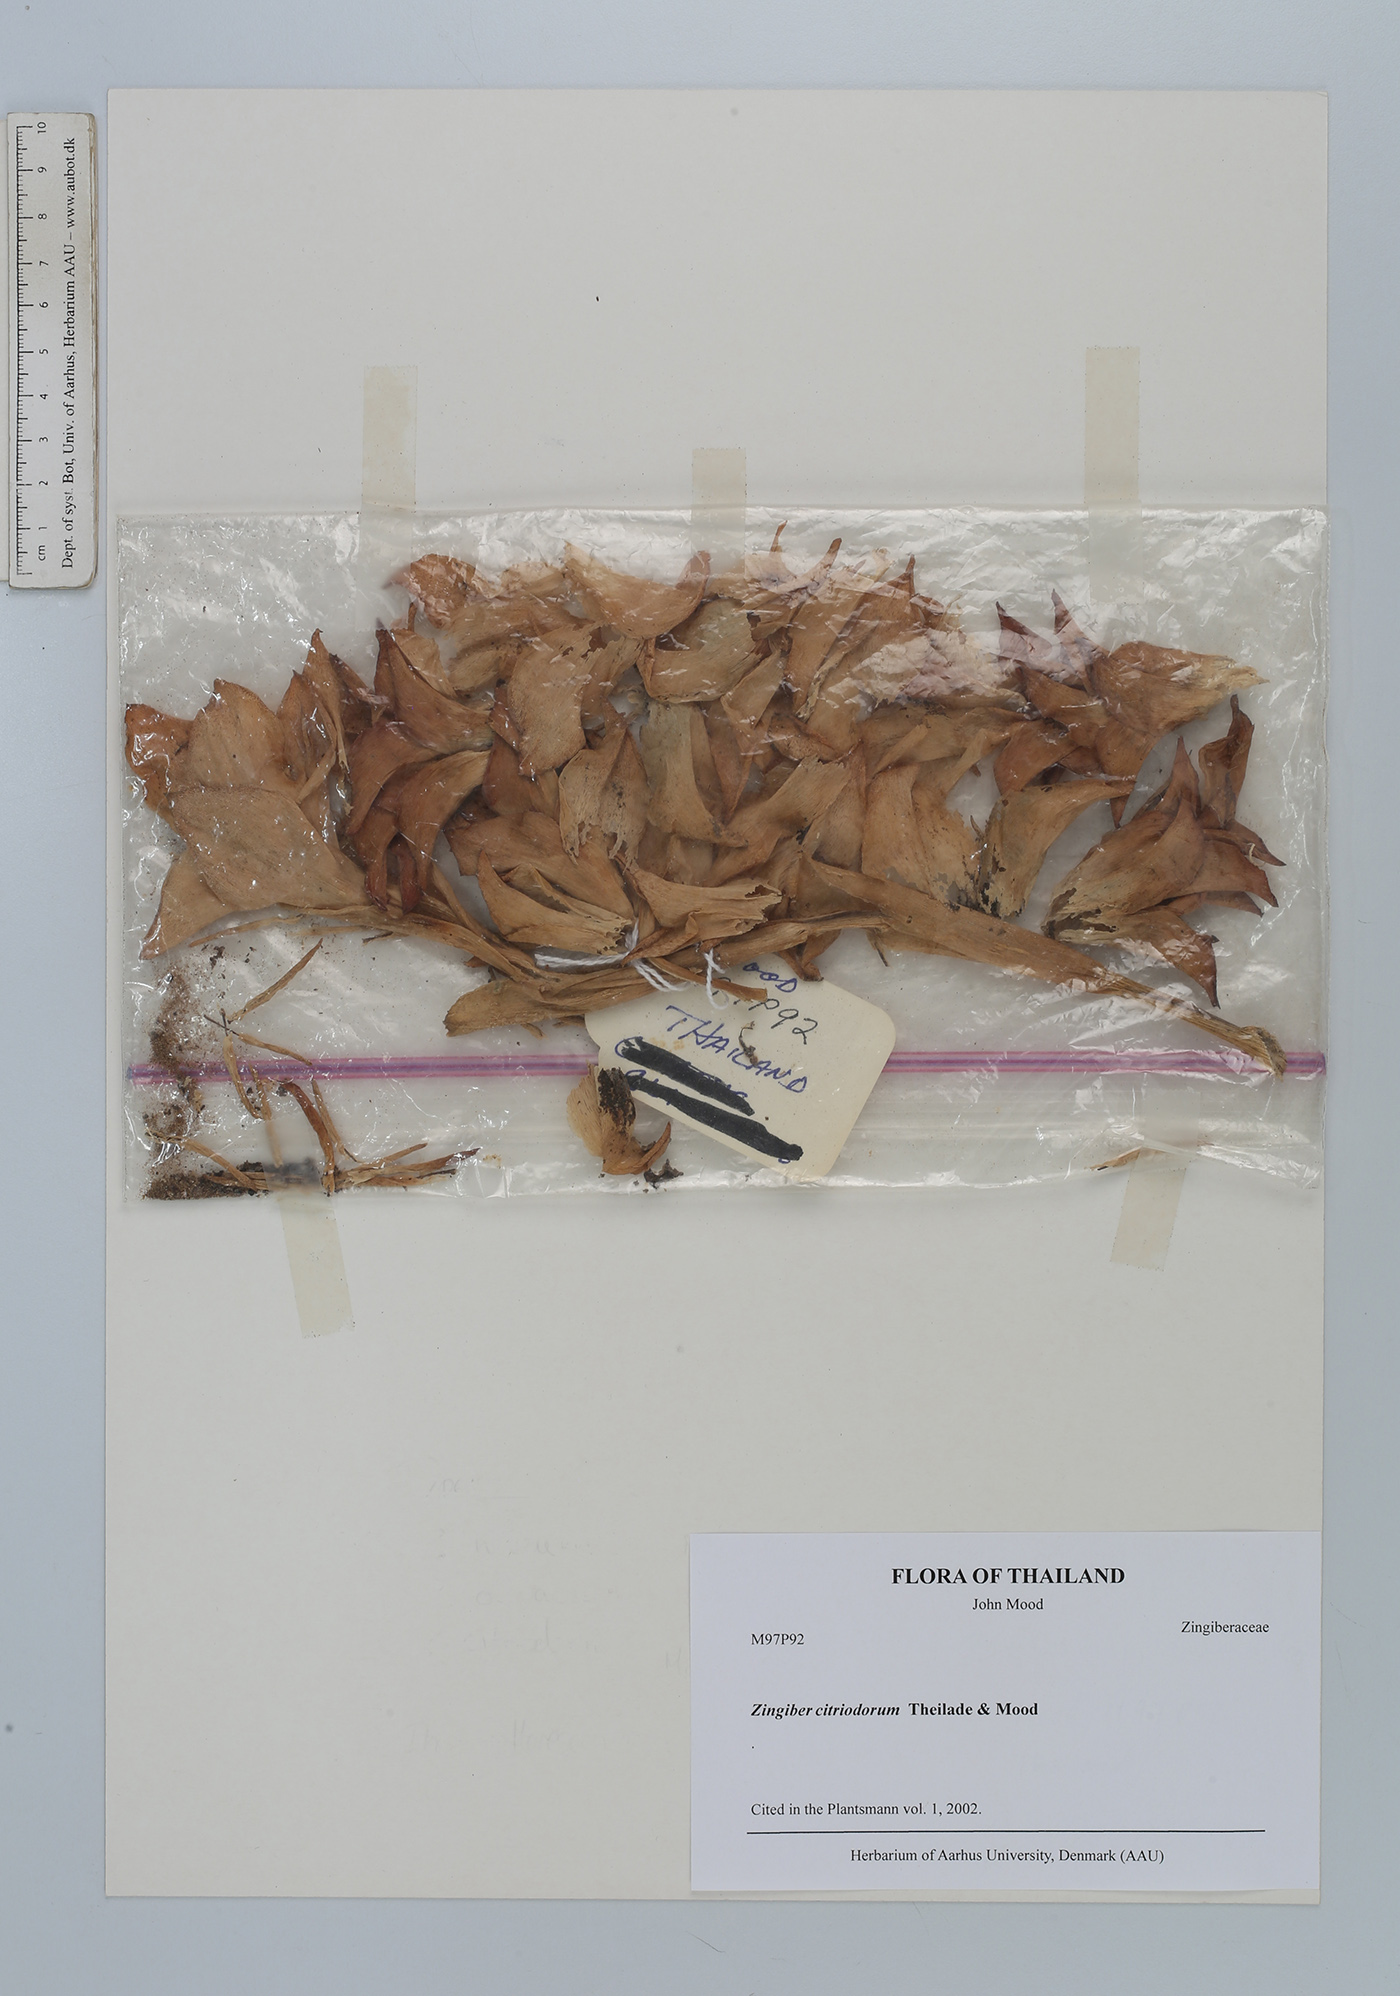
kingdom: Plantae
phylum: Tracheophyta
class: Liliopsida
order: Zingiberales
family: Zingiberaceae
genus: Zingiber
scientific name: Zingiber citriodorum
